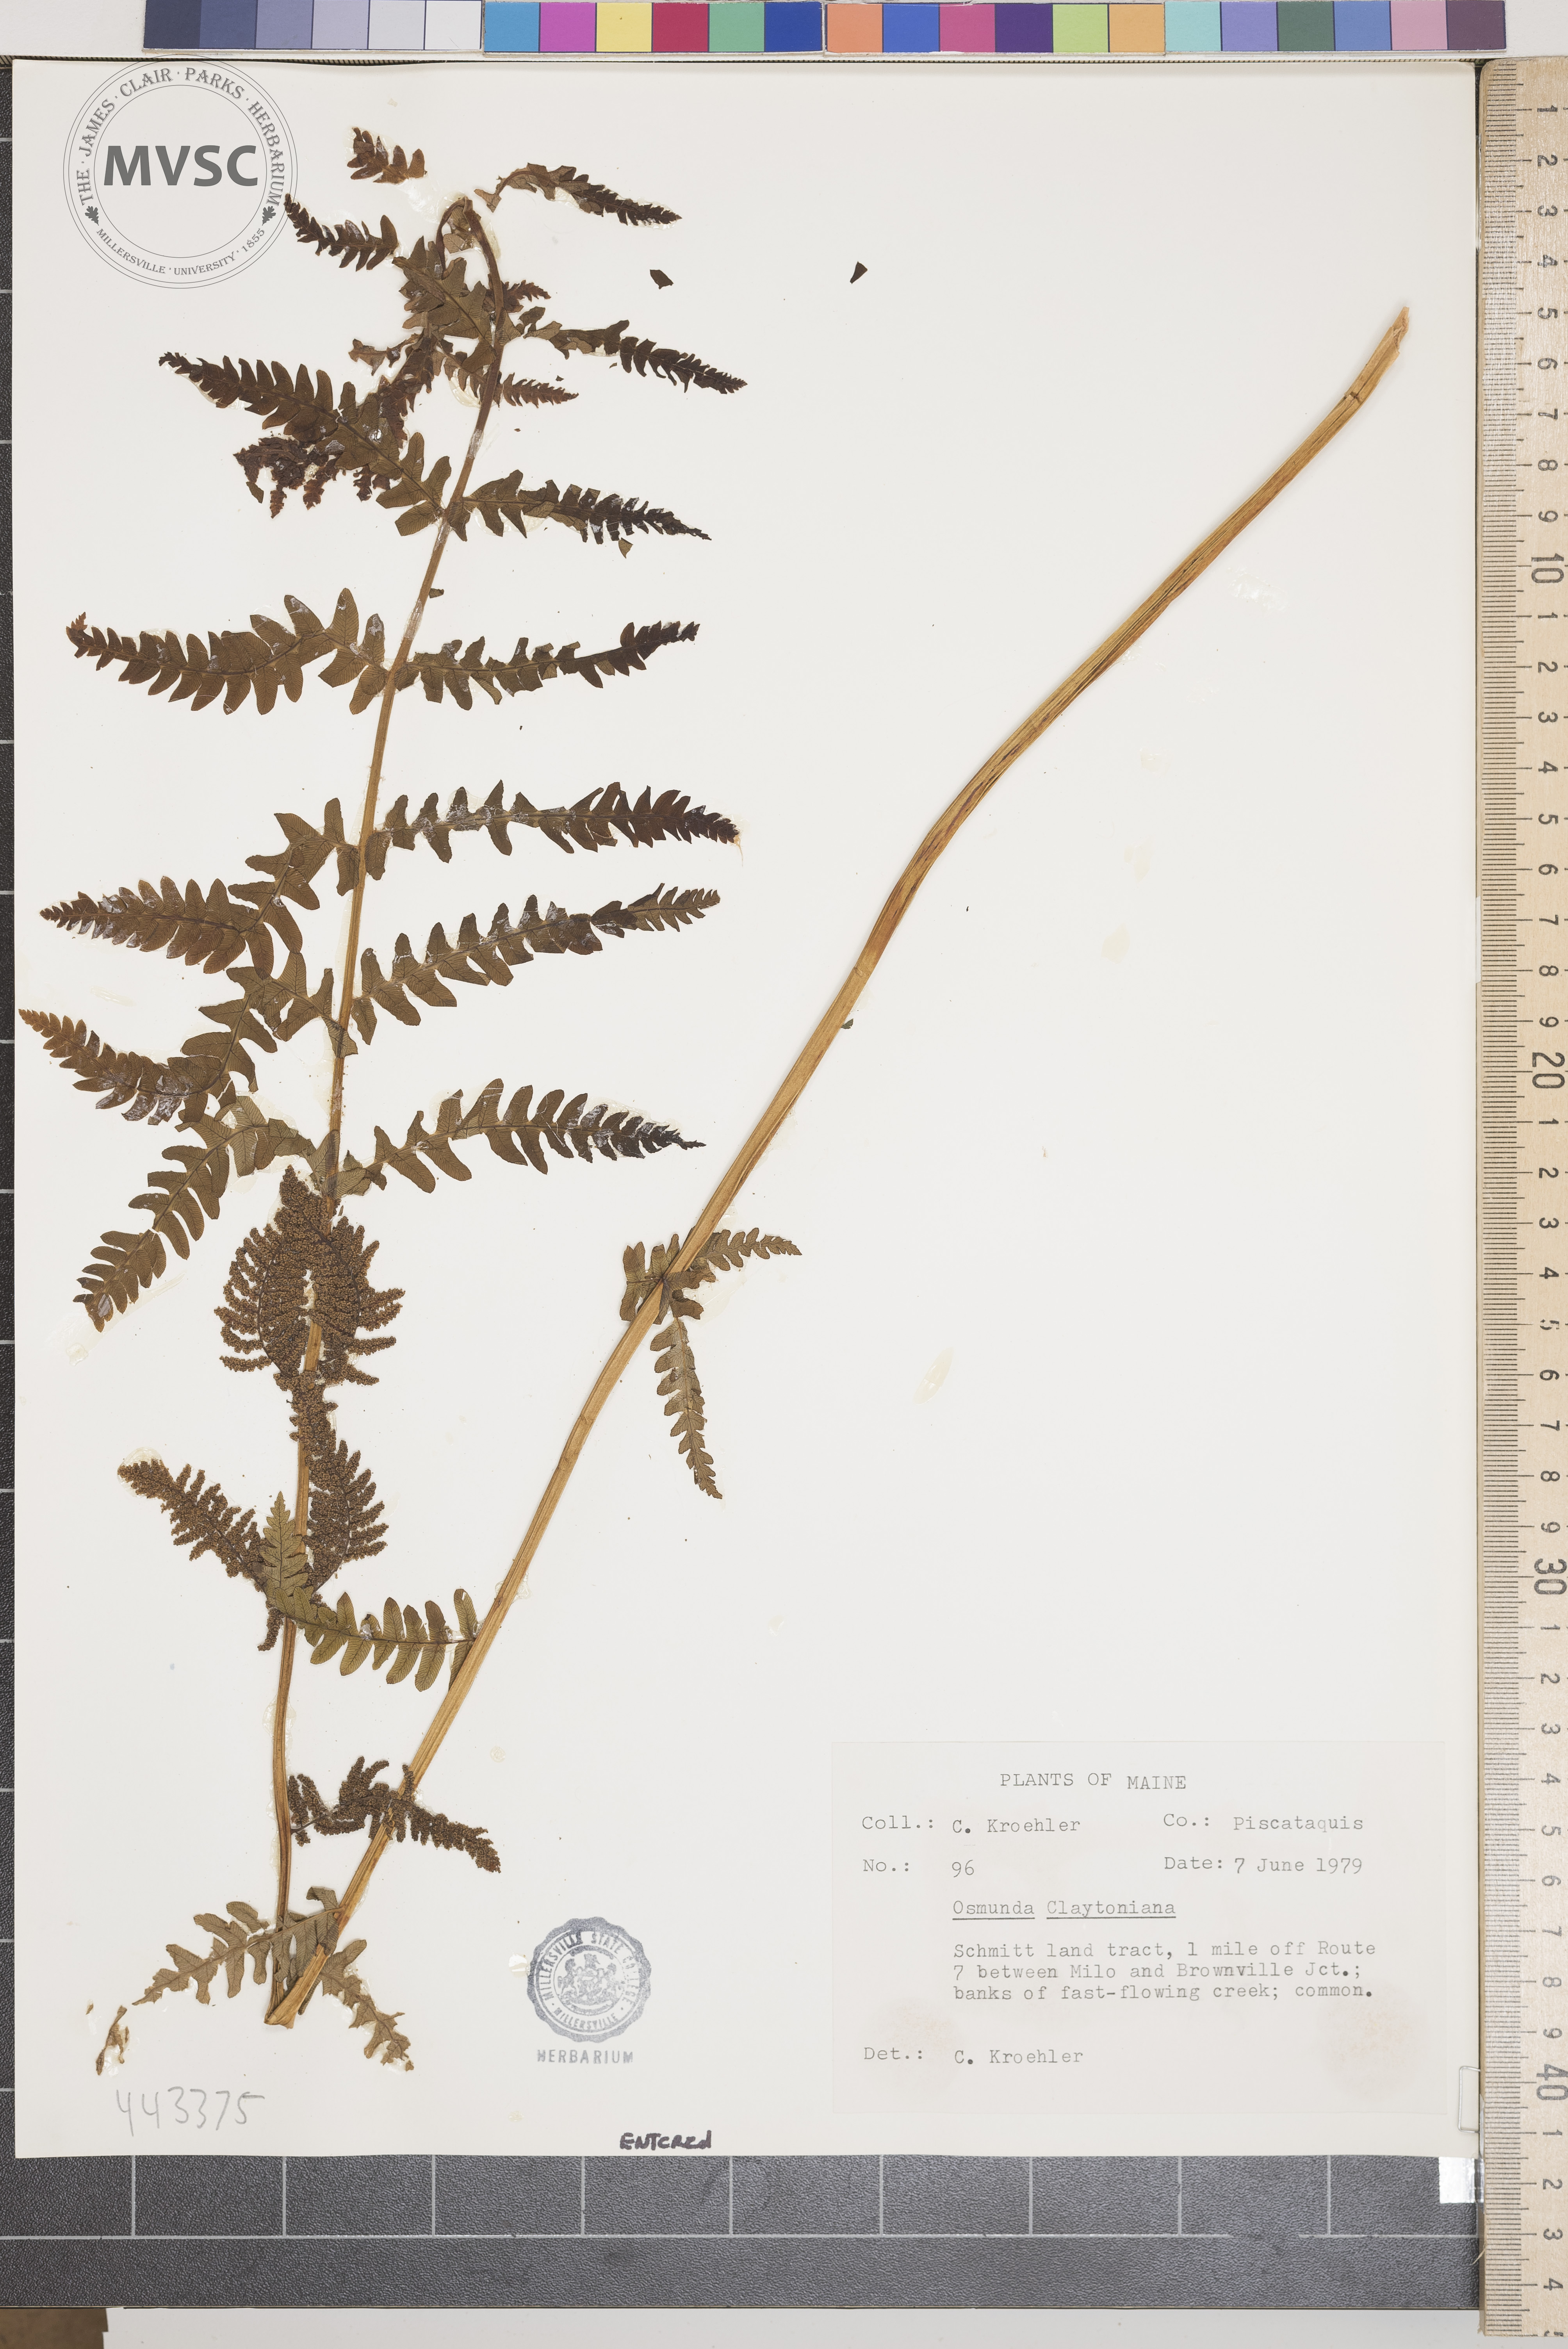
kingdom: Plantae
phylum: Tracheophyta
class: Polypodiopsida
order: Osmundales
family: Osmundaceae
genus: Claytosmunda
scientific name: Claytosmunda claytoniana
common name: Clayton's fern
